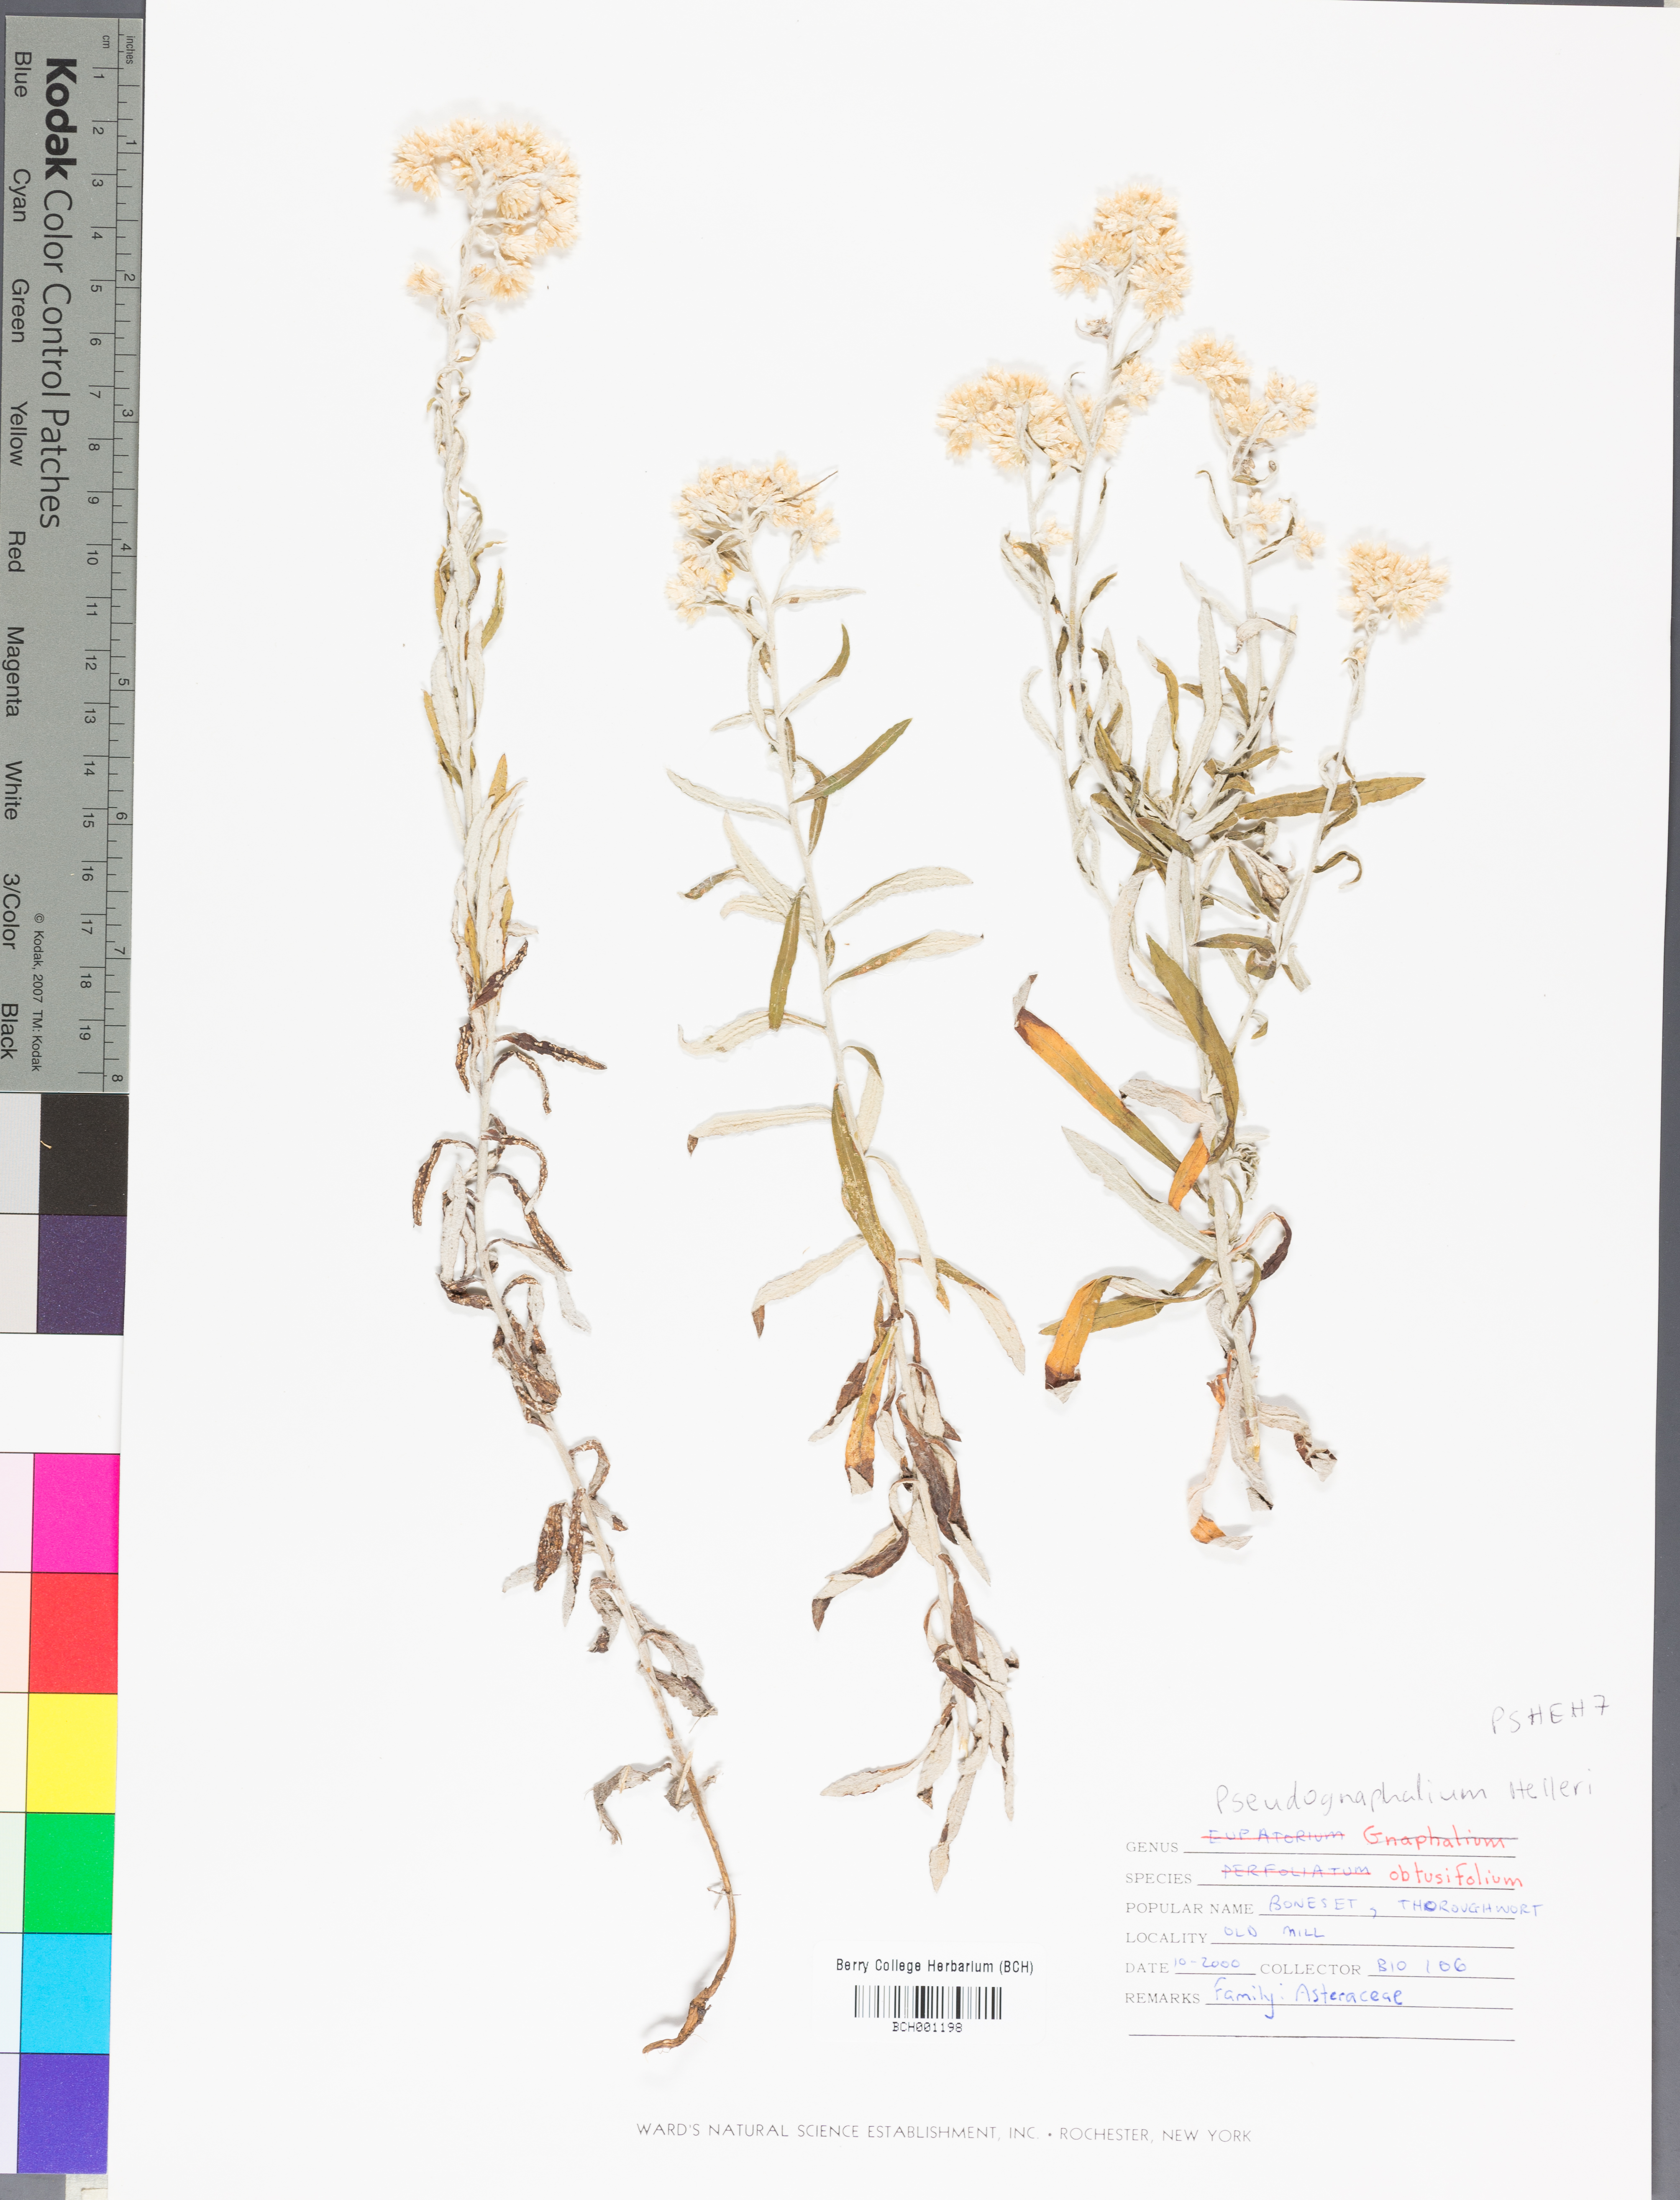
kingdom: Plantae
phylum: Tracheophyta
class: Magnoliopsida
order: Asterales
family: Asteraceae
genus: Pseudognaphalium
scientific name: Pseudognaphalium helleri
